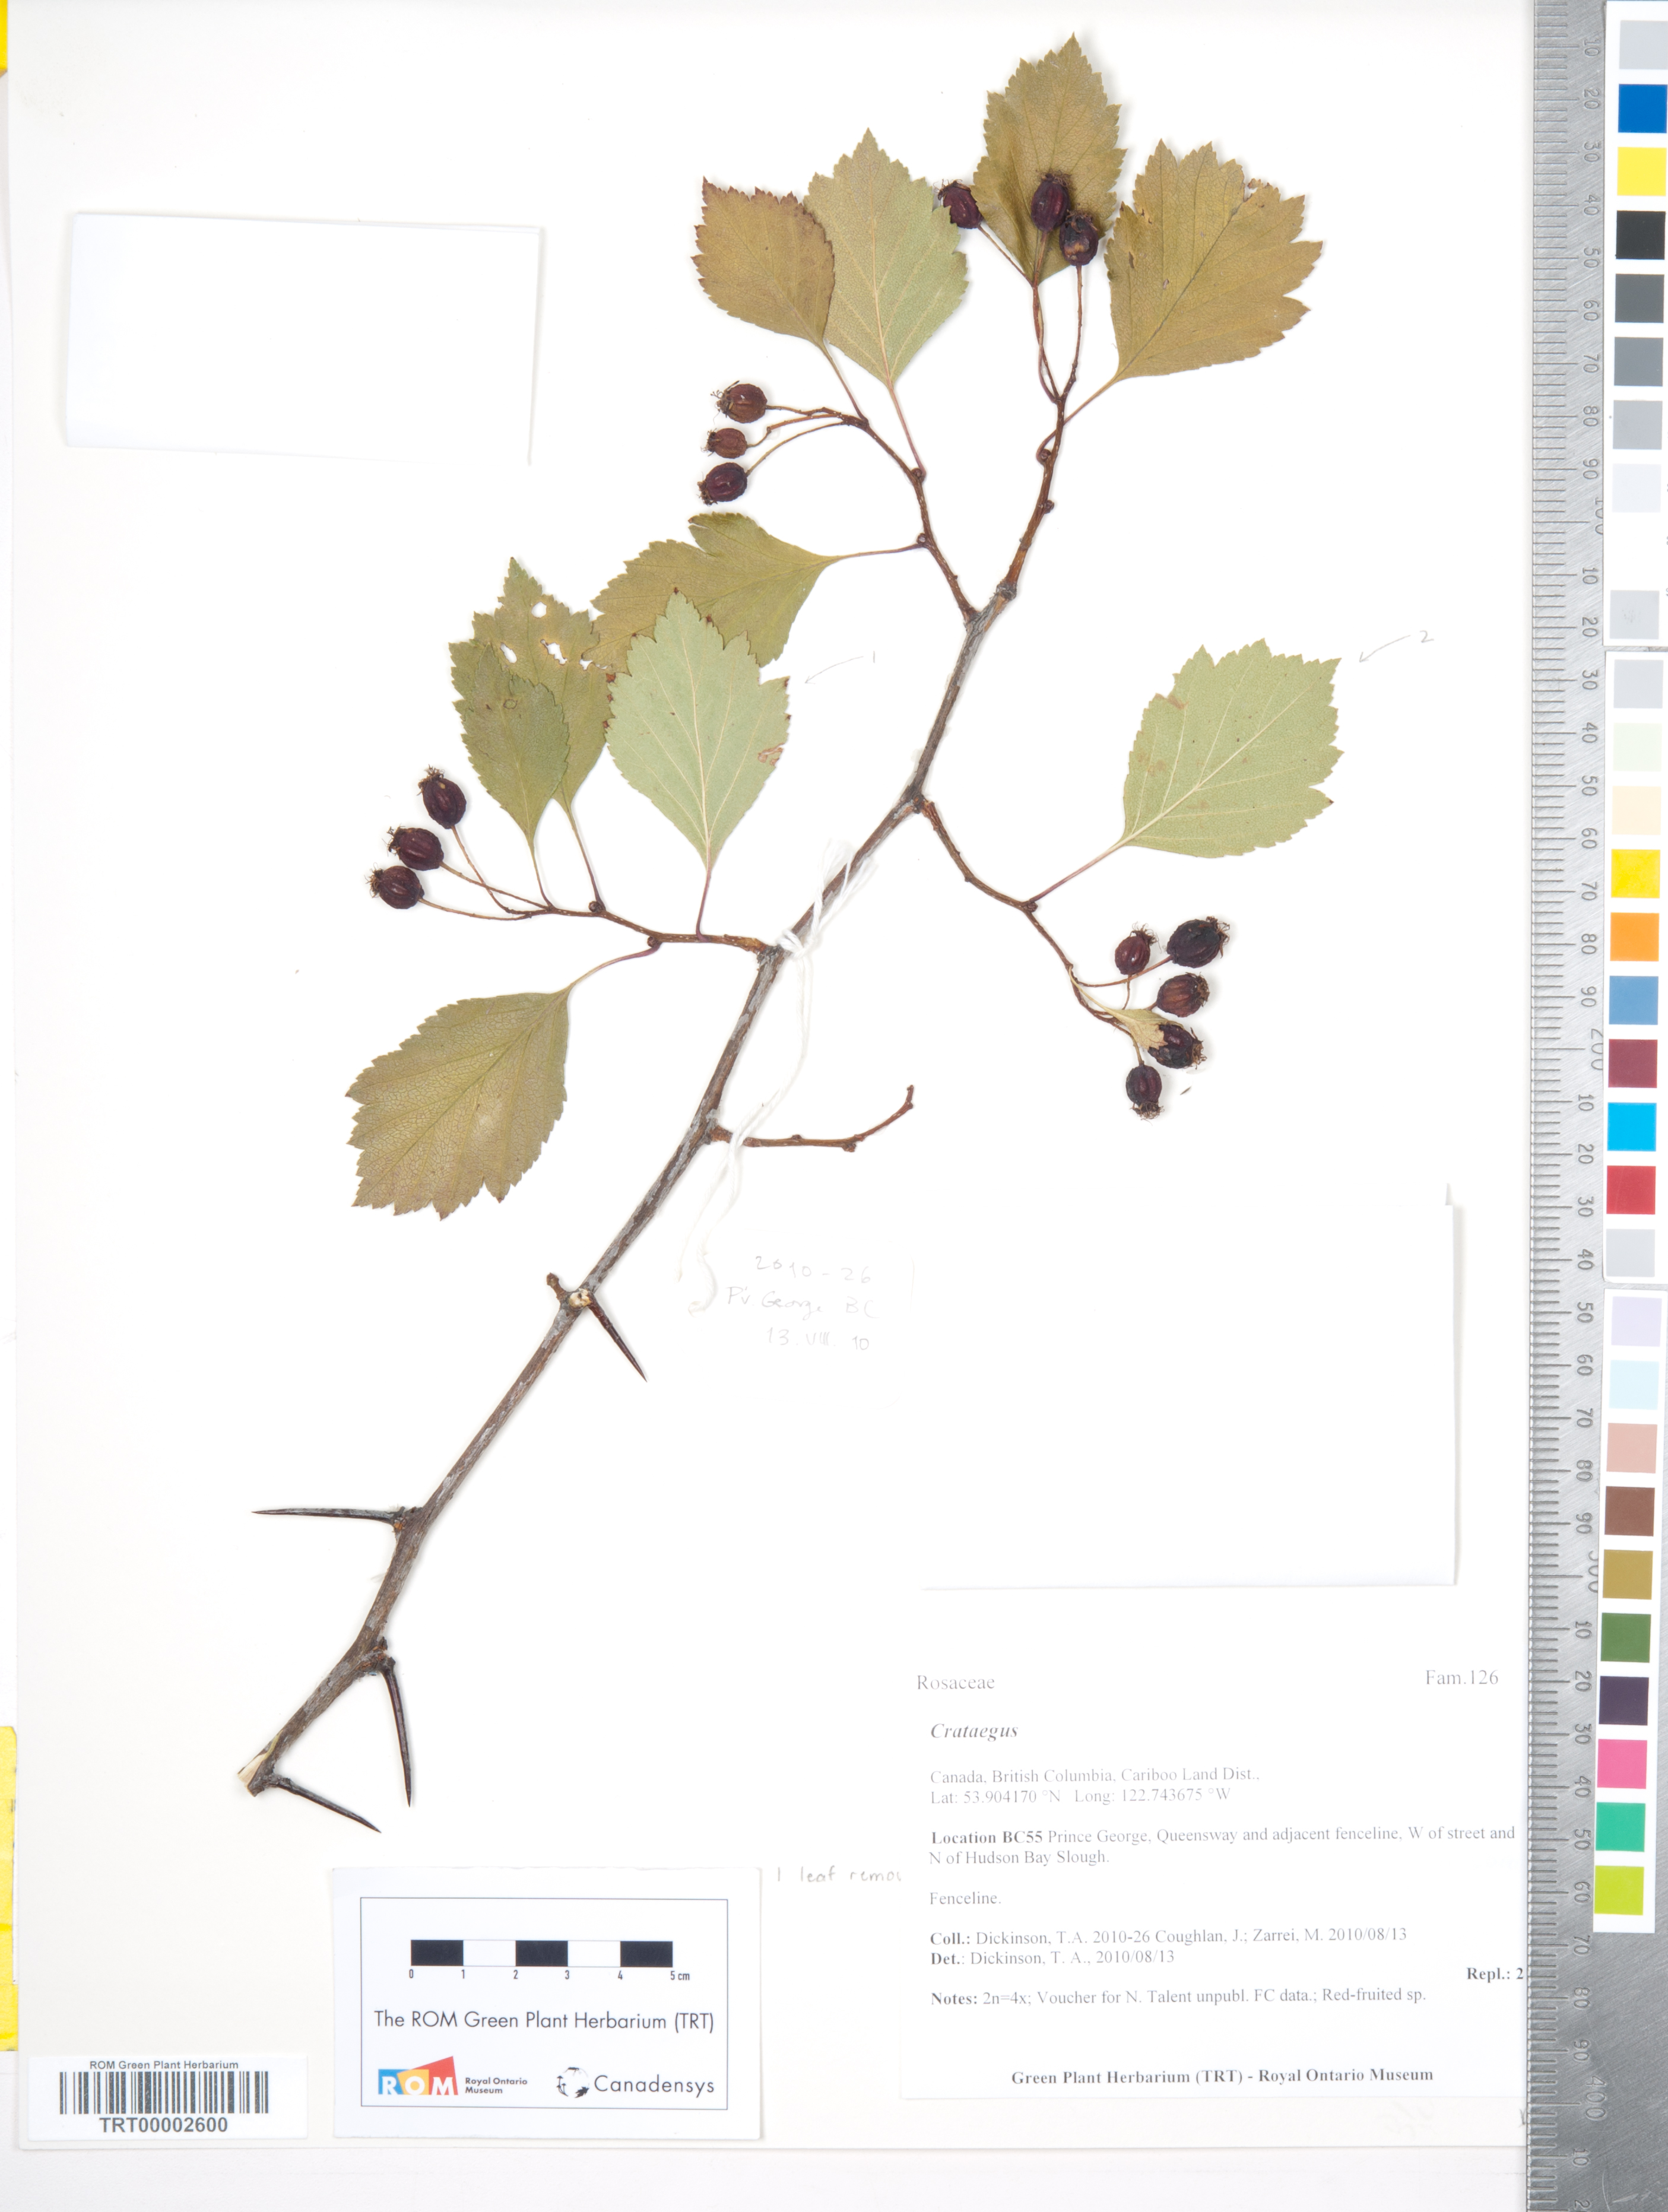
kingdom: Plantae
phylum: Tracheophyta
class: Magnoliopsida
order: Rosales
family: Rosaceae
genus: Crataegus
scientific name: Crataegus sheila-phippsiae
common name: Sheila phipps' hawthorn
